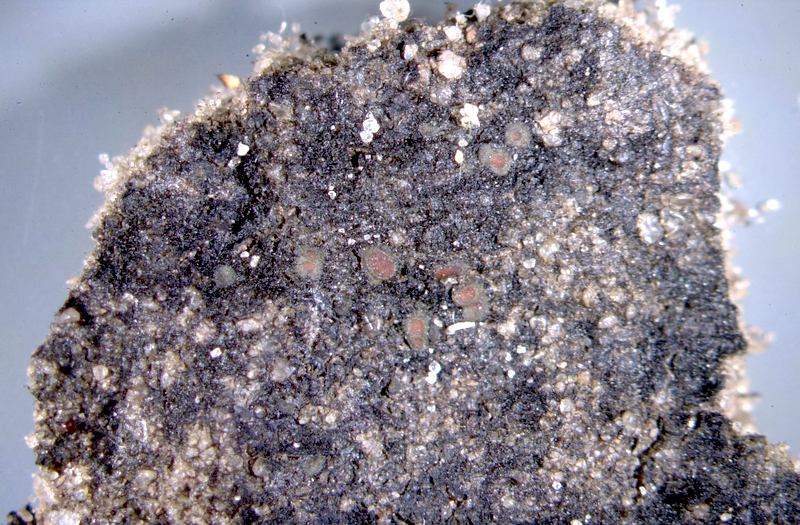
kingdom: Fungi
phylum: Ascomycota
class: Lichinomycetes
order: Lichinales
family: Peltulaceae
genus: Peltula
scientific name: Peltula patellata
